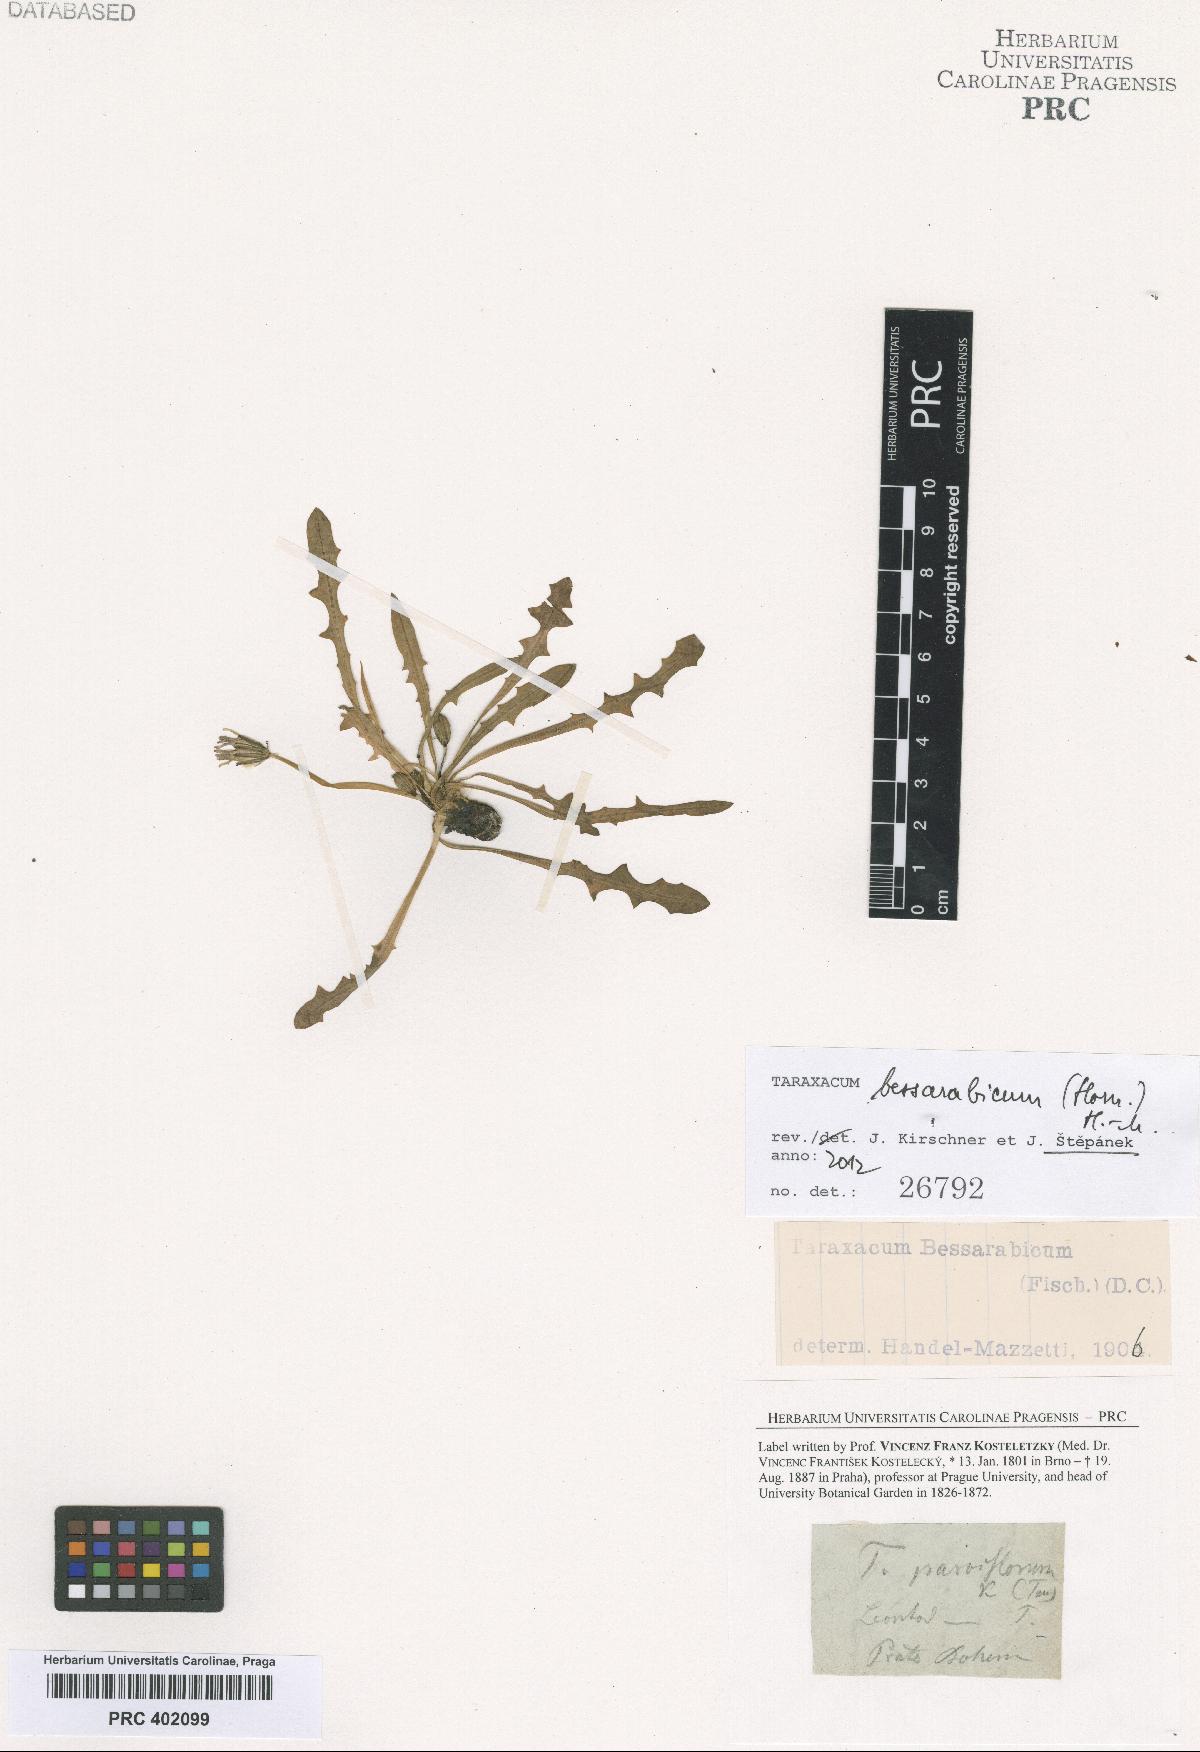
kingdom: Plantae
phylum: Tracheophyta
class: Magnoliopsida
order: Asterales
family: Asteraceae
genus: Taraxacum
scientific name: Taraxacum bessarabicum
